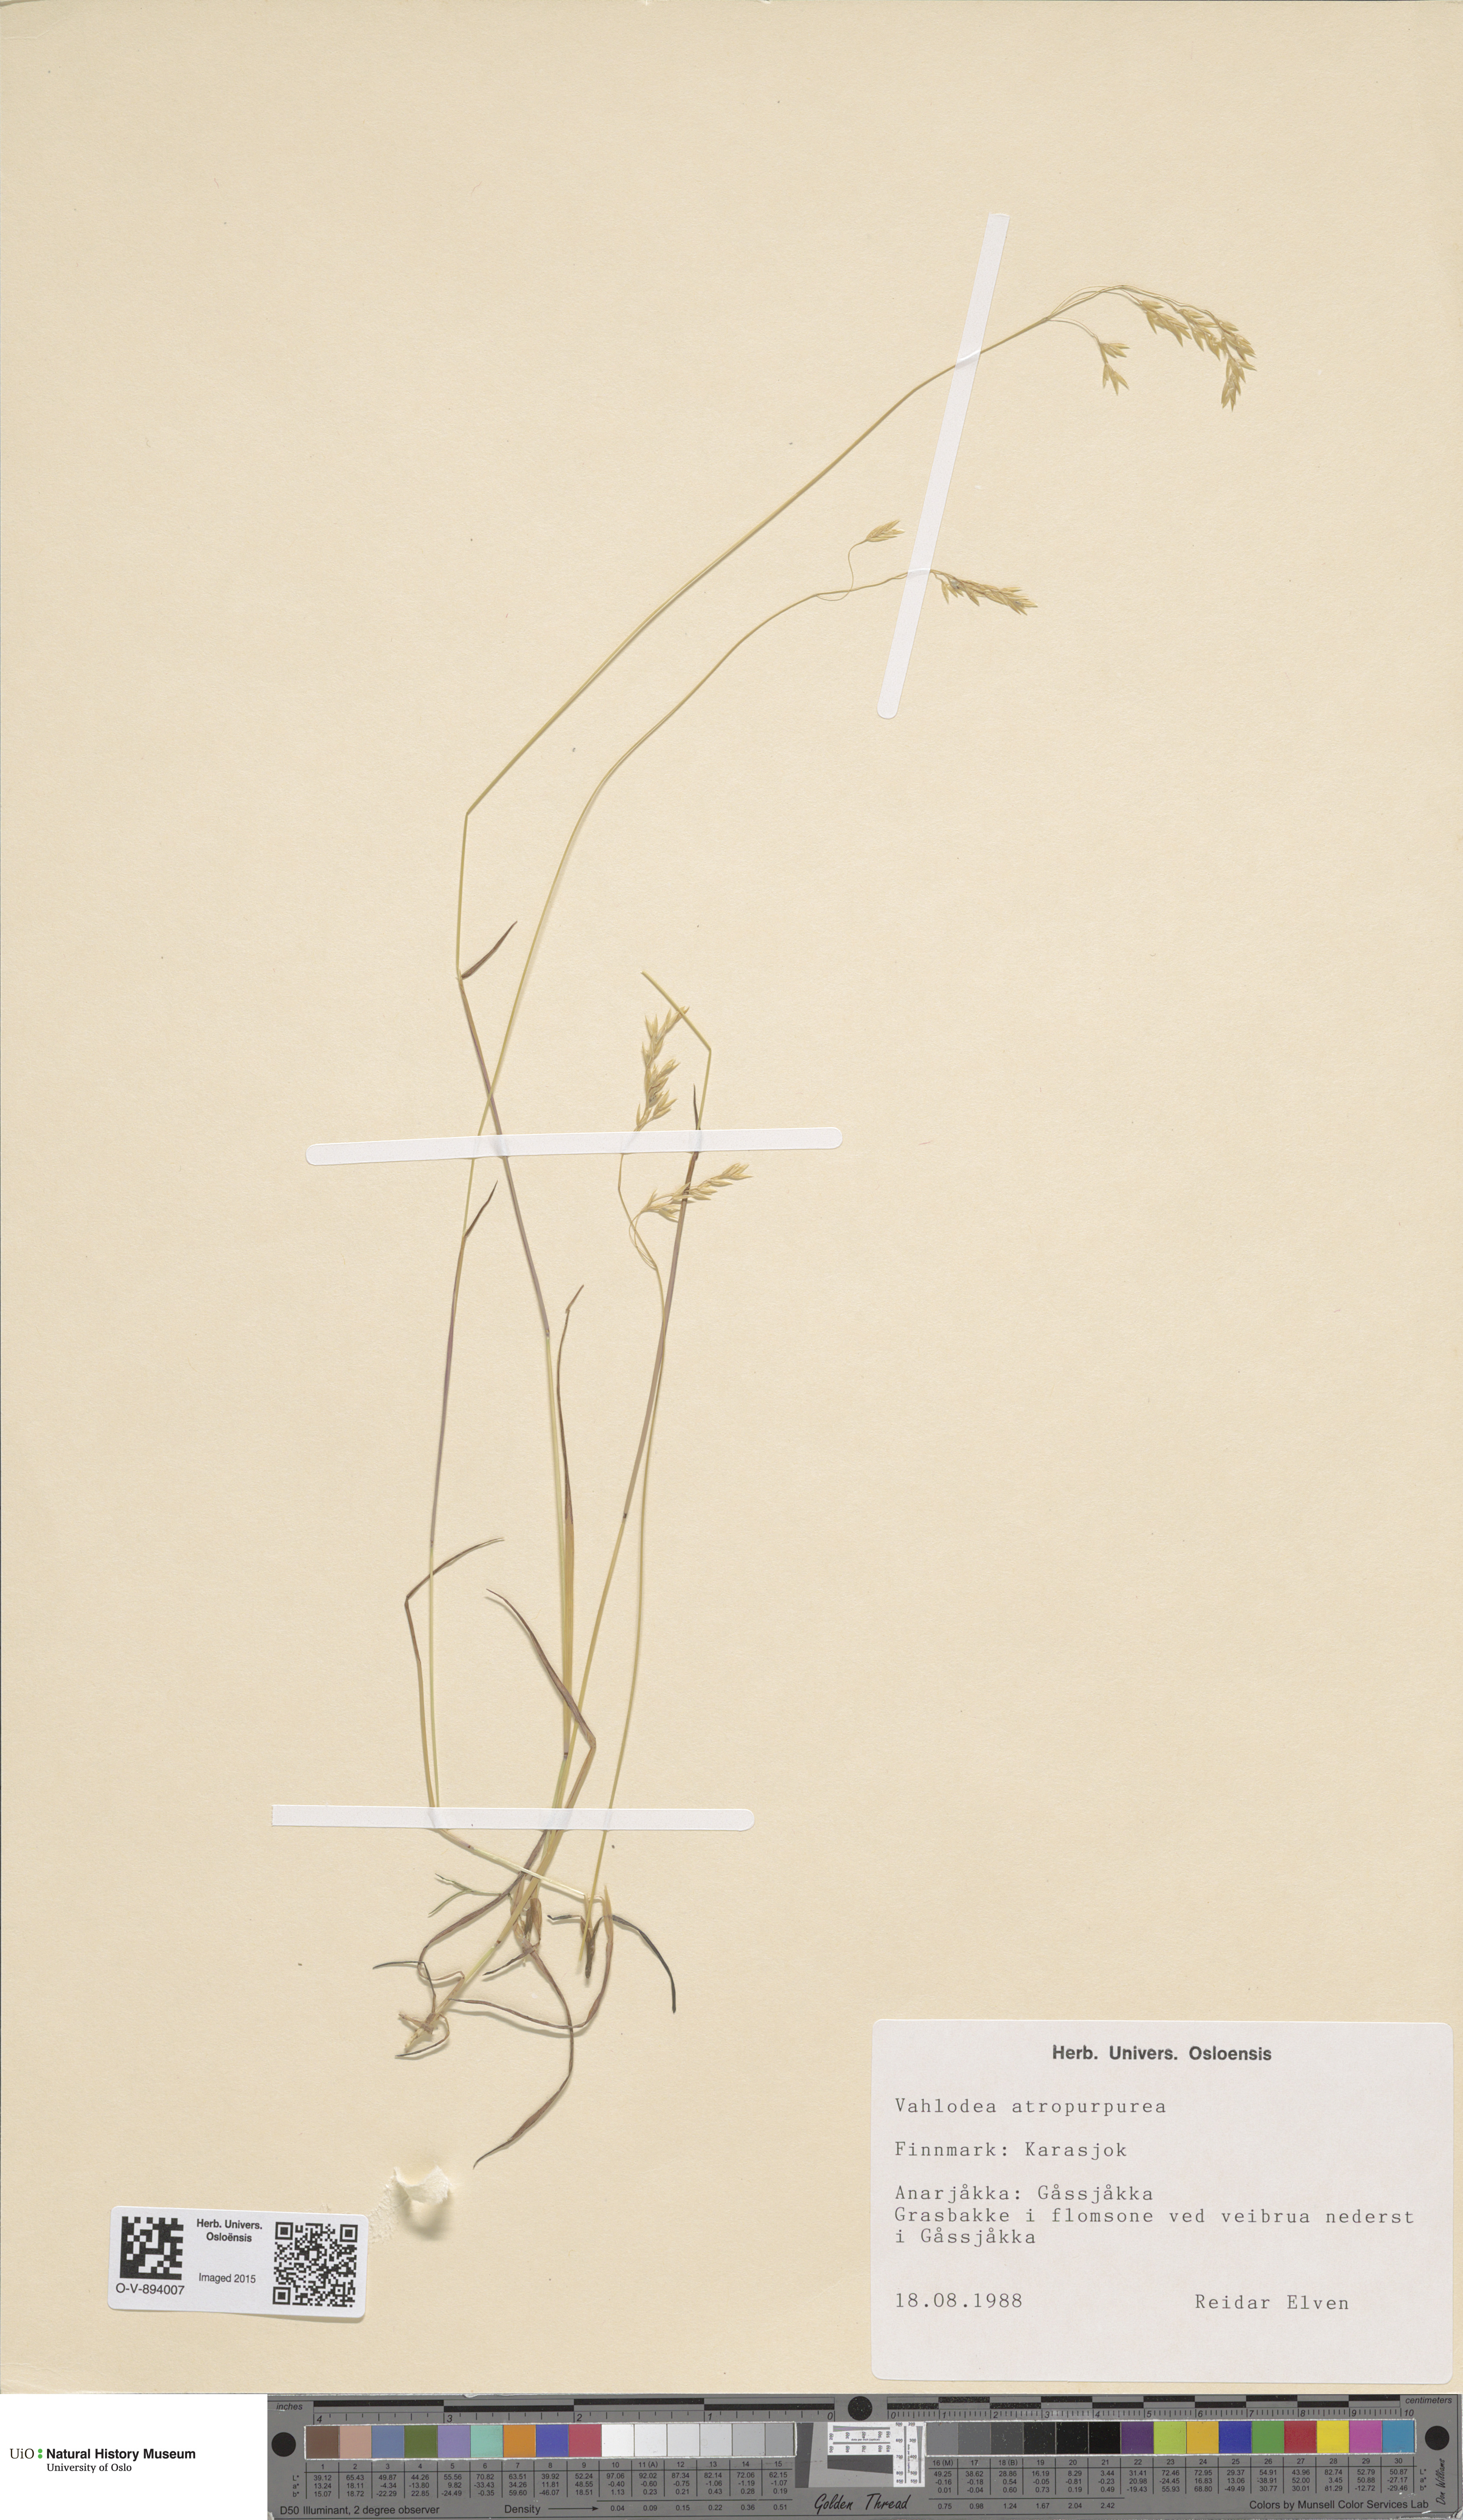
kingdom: Plantae
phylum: Tracheophyta
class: Liliopsida
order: Poales
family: Poaceae
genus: Vahlodea
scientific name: Vahlodea atropurpurea
